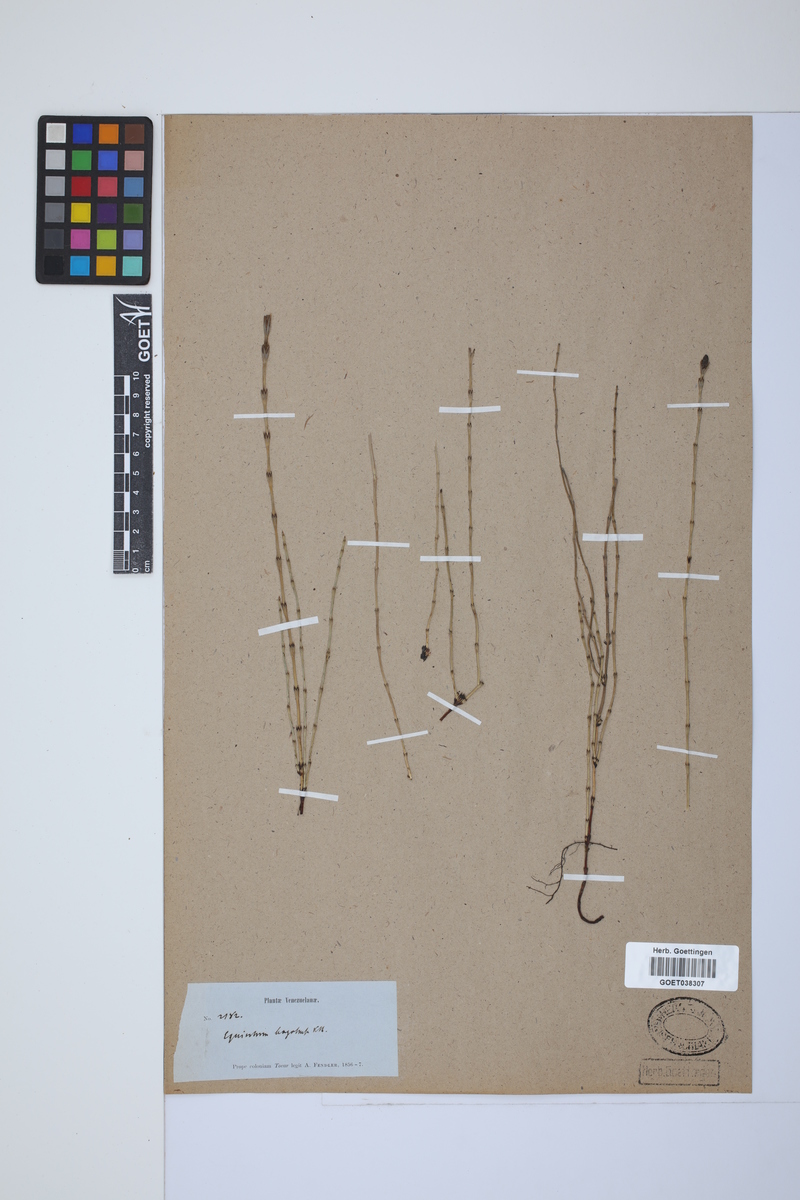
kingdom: Plantae
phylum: Tracheophyta
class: Polypodiopsida
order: Equisetales
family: Equisetaceae
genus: Equisetum
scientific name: Equisetum bogotense
